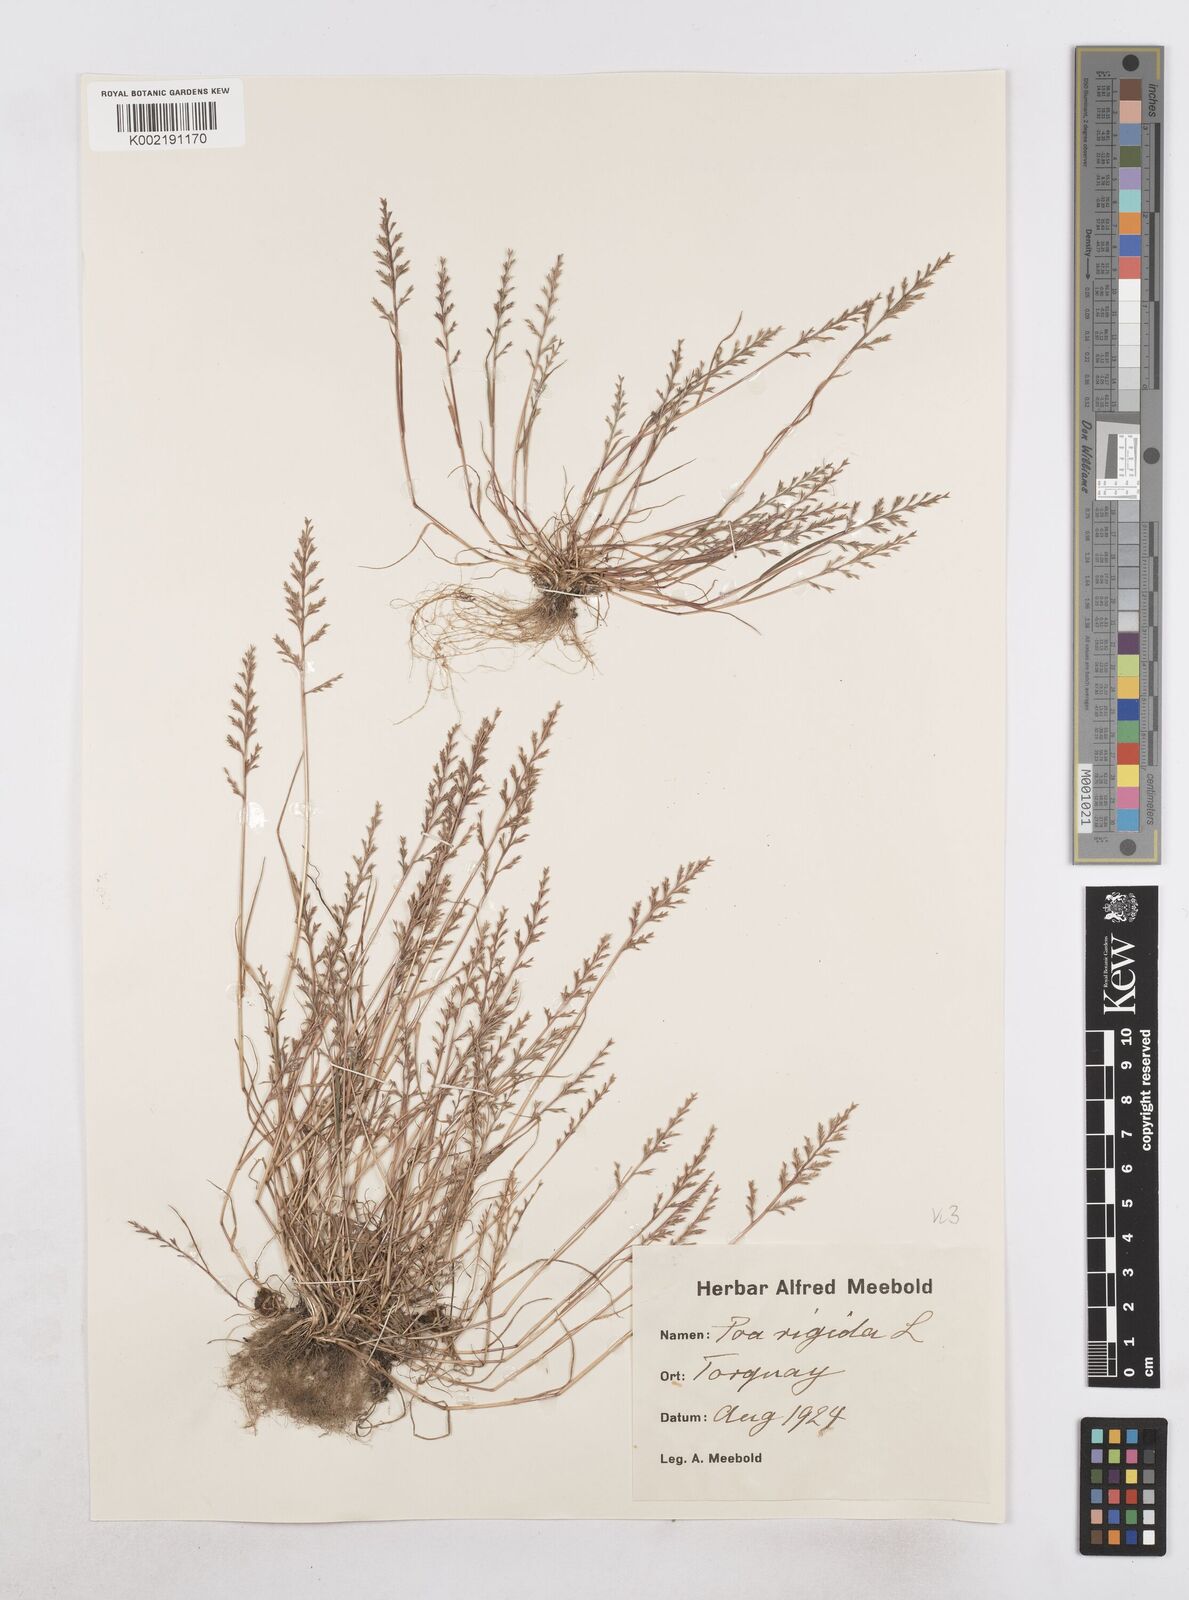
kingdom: Plantae
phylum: Tracheophyta
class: Liliopsida
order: Poales
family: Poaceae
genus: Catapodium
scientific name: Catapodium rigidum
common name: Fern-grass
